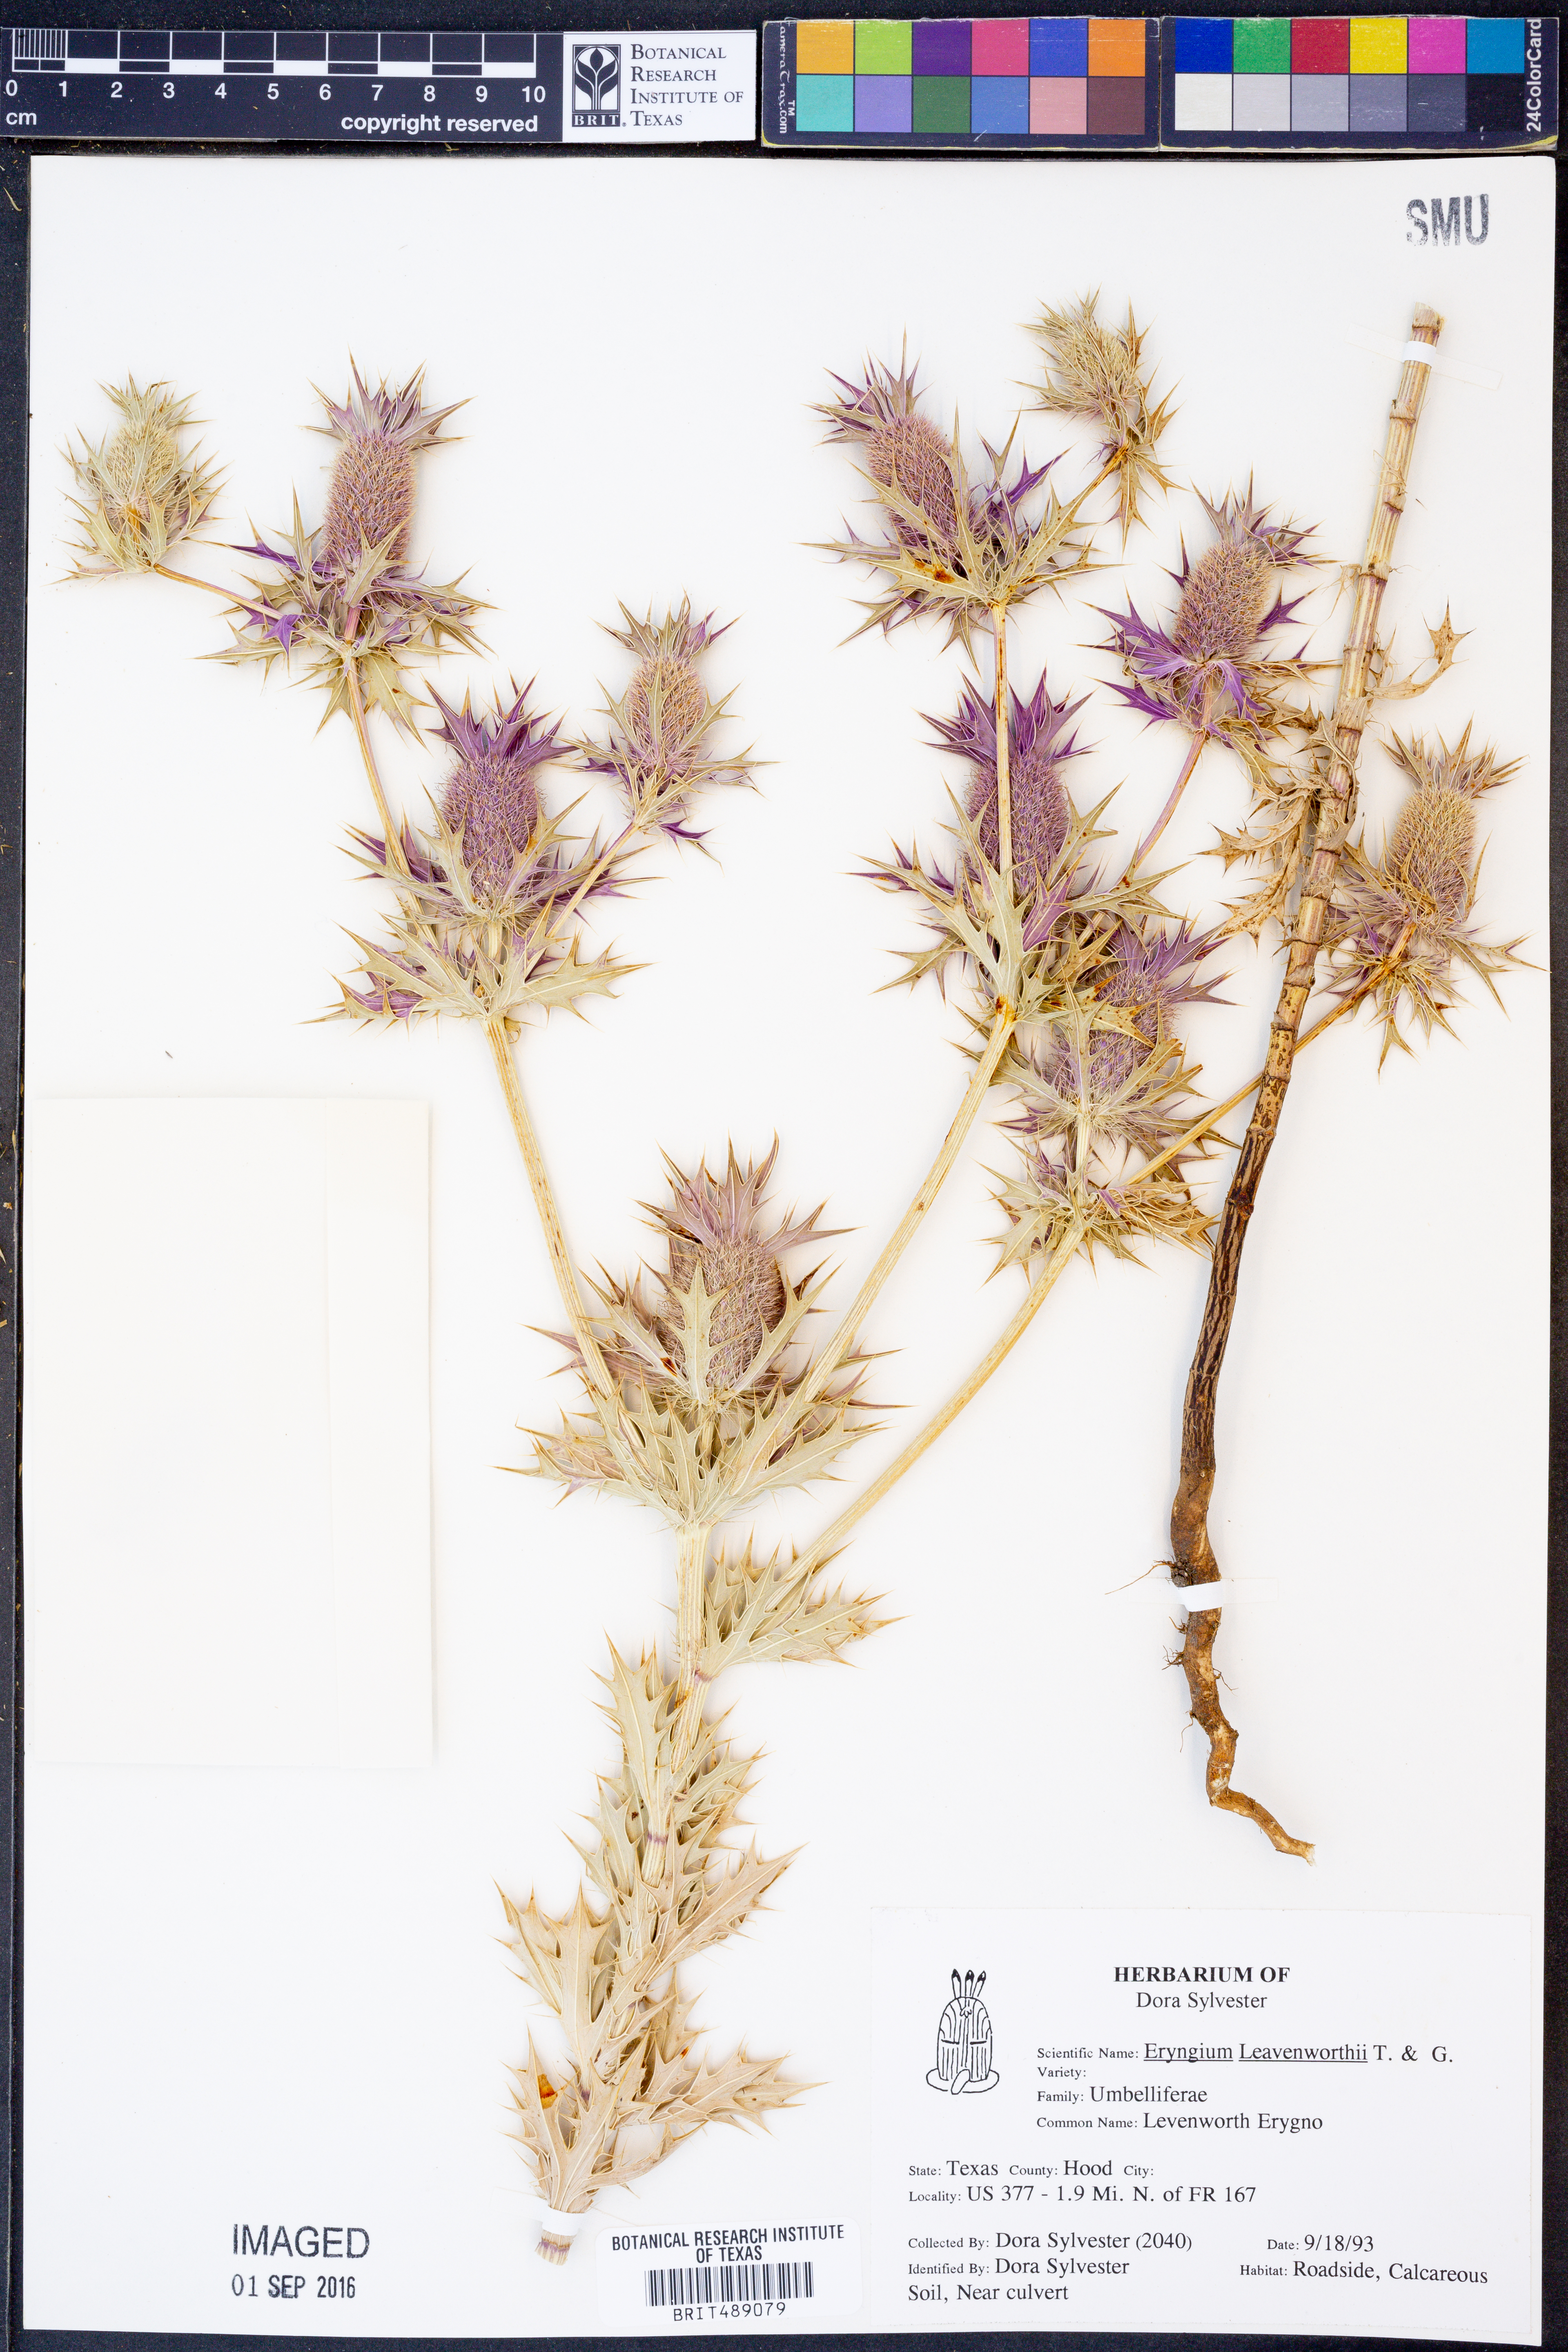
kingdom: Plantae
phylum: Tracheophyta
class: Magnoliopsida
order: Apiales
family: Apiaceae
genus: Eryngium
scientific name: Eryngium leavenworthii
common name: Leavenworth's eryngo
